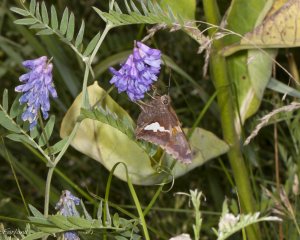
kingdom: Animalia
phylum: Arthropoda
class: Insecta
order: Lepidoptera
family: Hesperiidae
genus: Epargyreus
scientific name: Epargyreus clarus
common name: Silver-spotted Skipper
